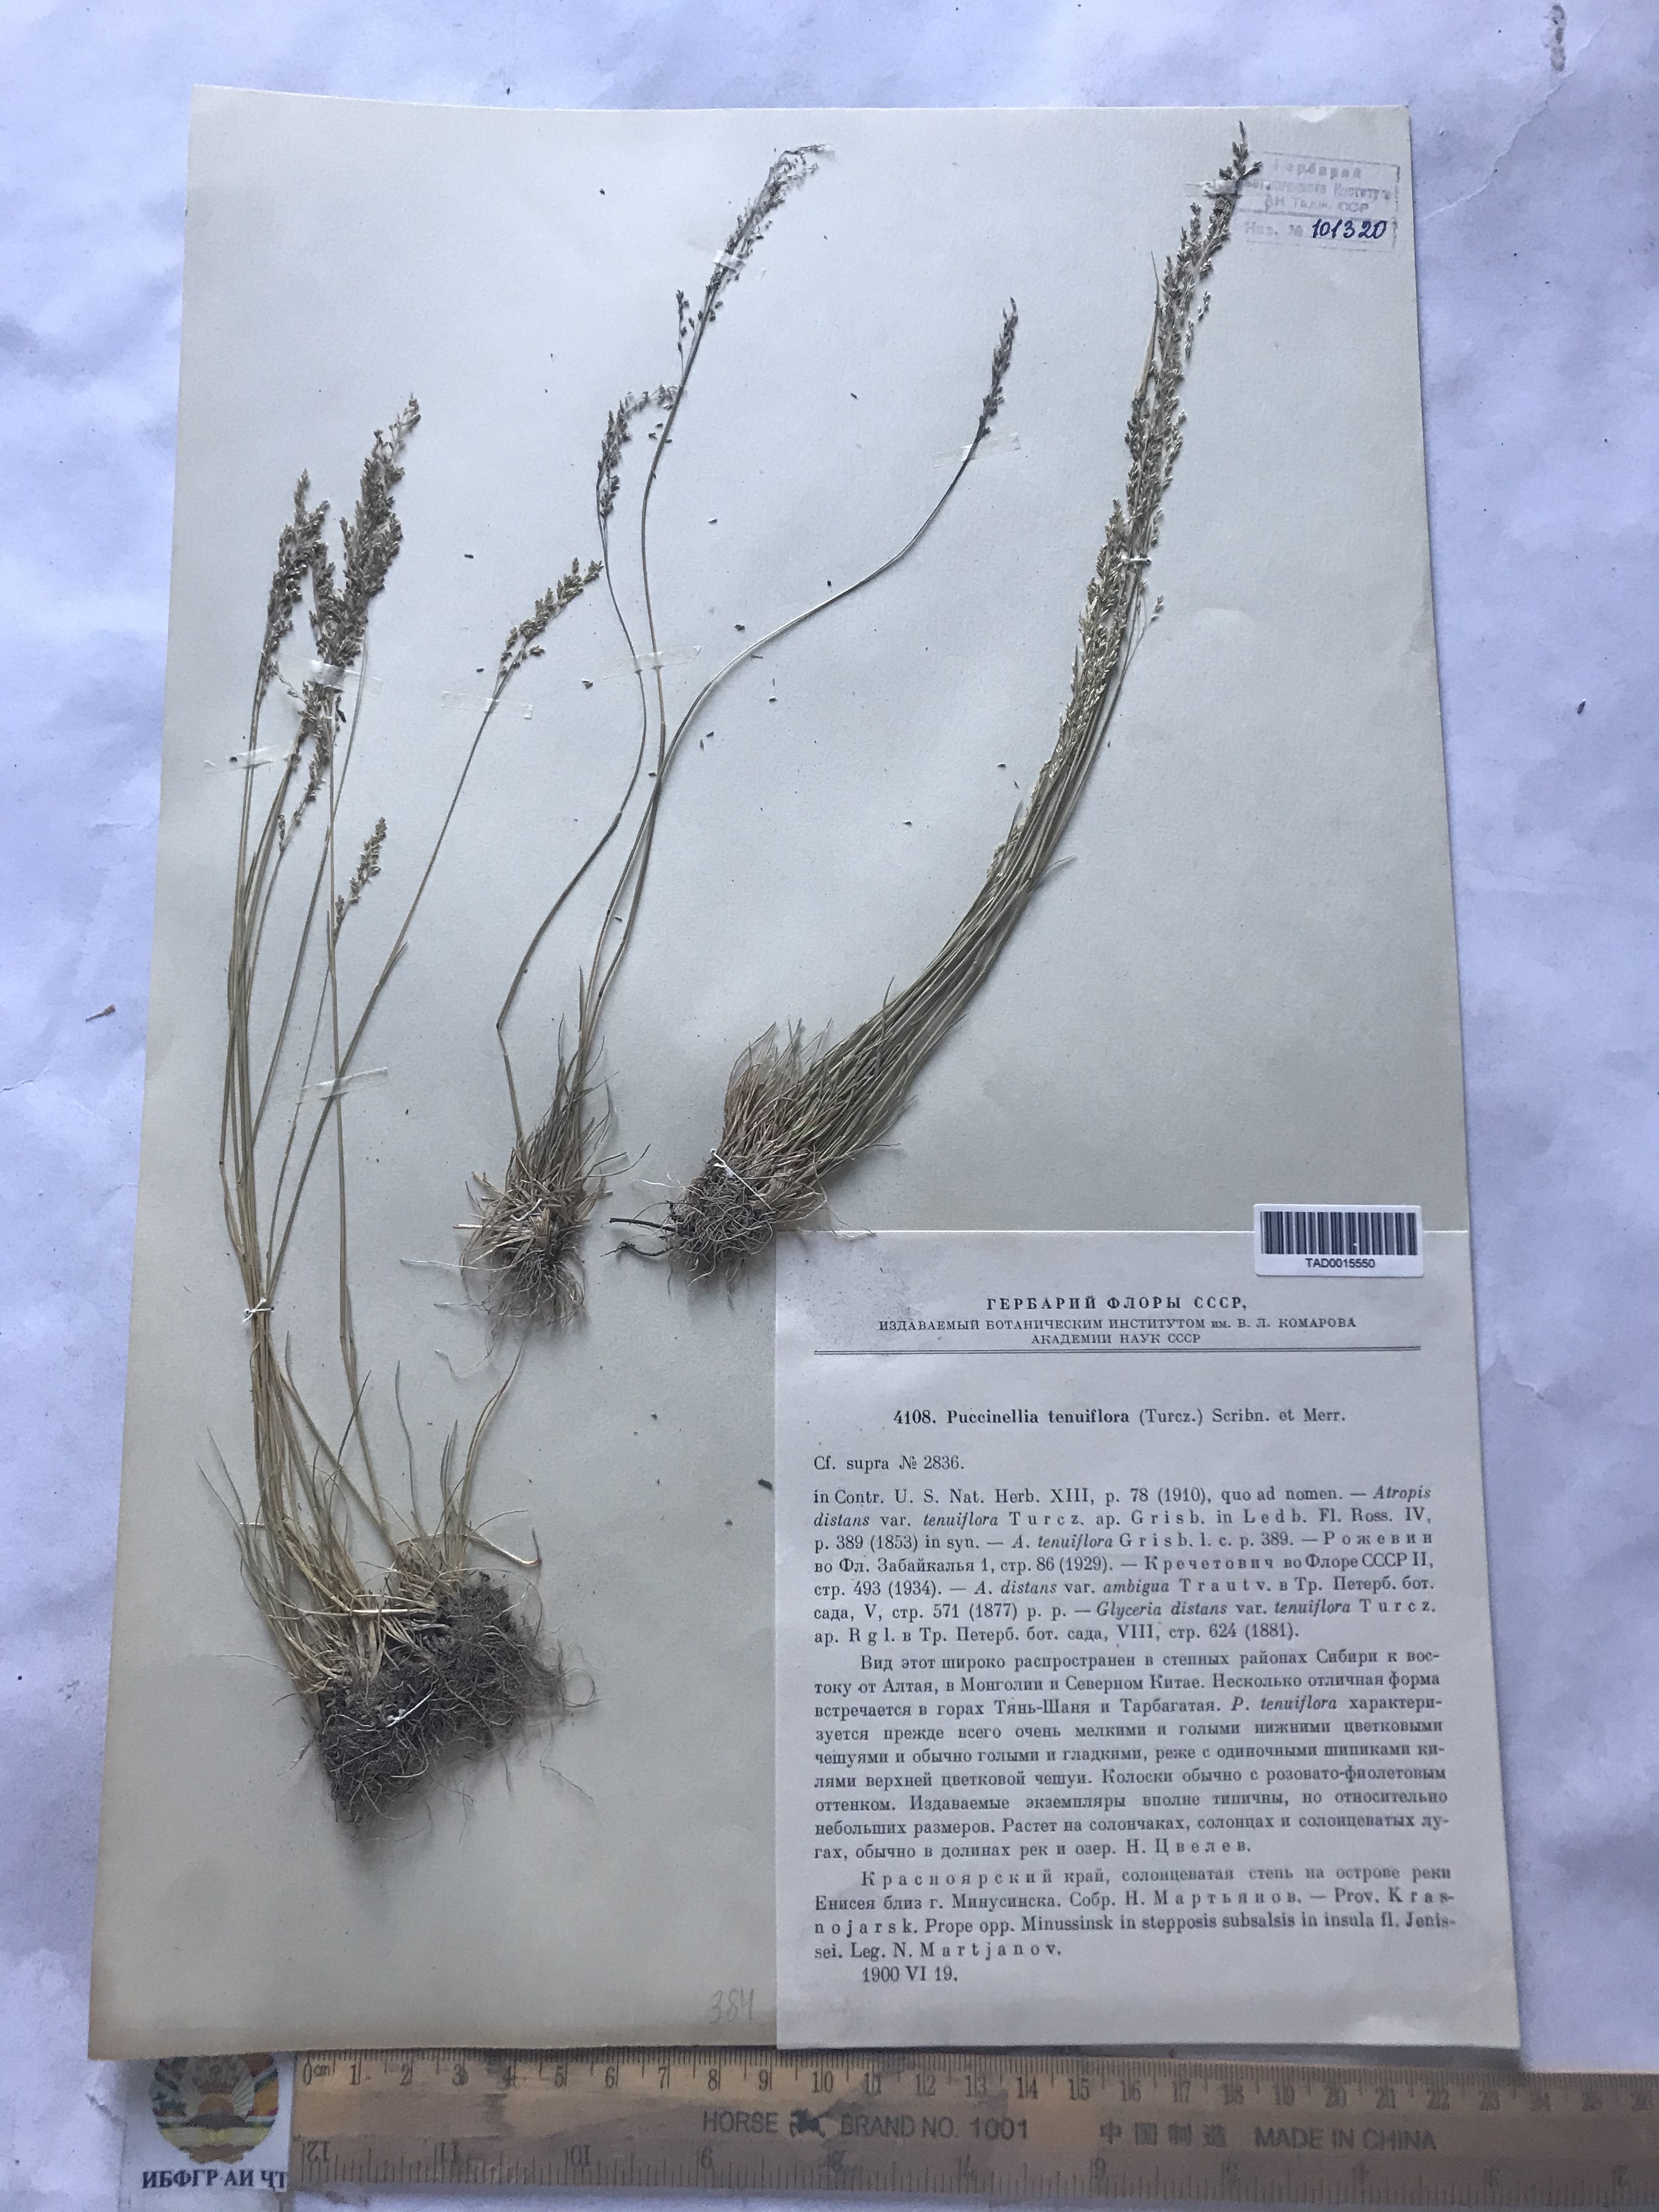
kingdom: Plantae
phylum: Tracheophyta
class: Liliopsida
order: Poales
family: Poaceae
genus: Puccinellia
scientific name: Puccinellia tenuiflora
